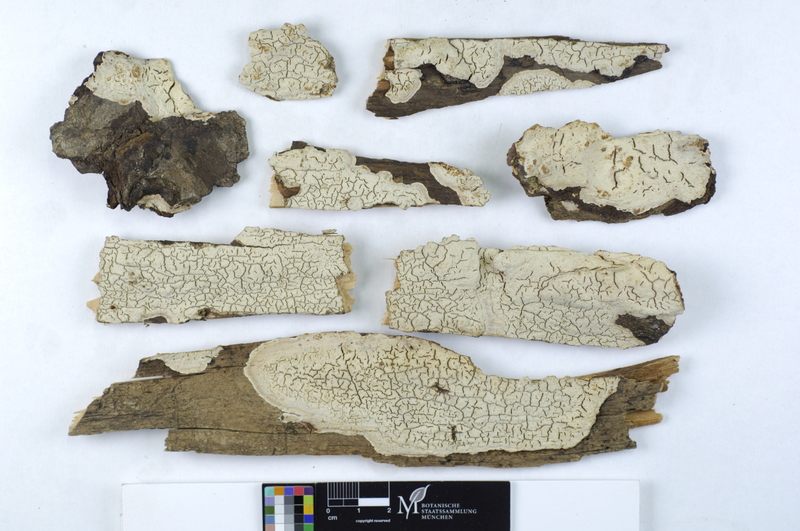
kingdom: Plantae
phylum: Tracheophyta
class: Pinopsida
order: Pinales
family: Pinaceae
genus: Abies
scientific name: Abies alba
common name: Silver fir
